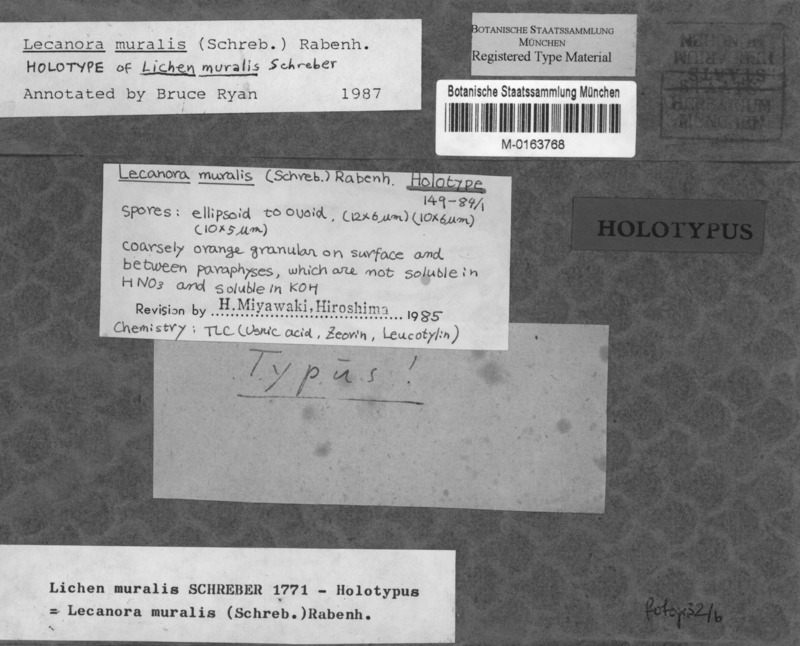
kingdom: Fungi
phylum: Ascomycota
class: Lecanoromycetes
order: Lecanorales
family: Lecanoraceae
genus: Protoparmeliopsis
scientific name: Protoparmeliopsis muralis
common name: Stonewall rim lichen
